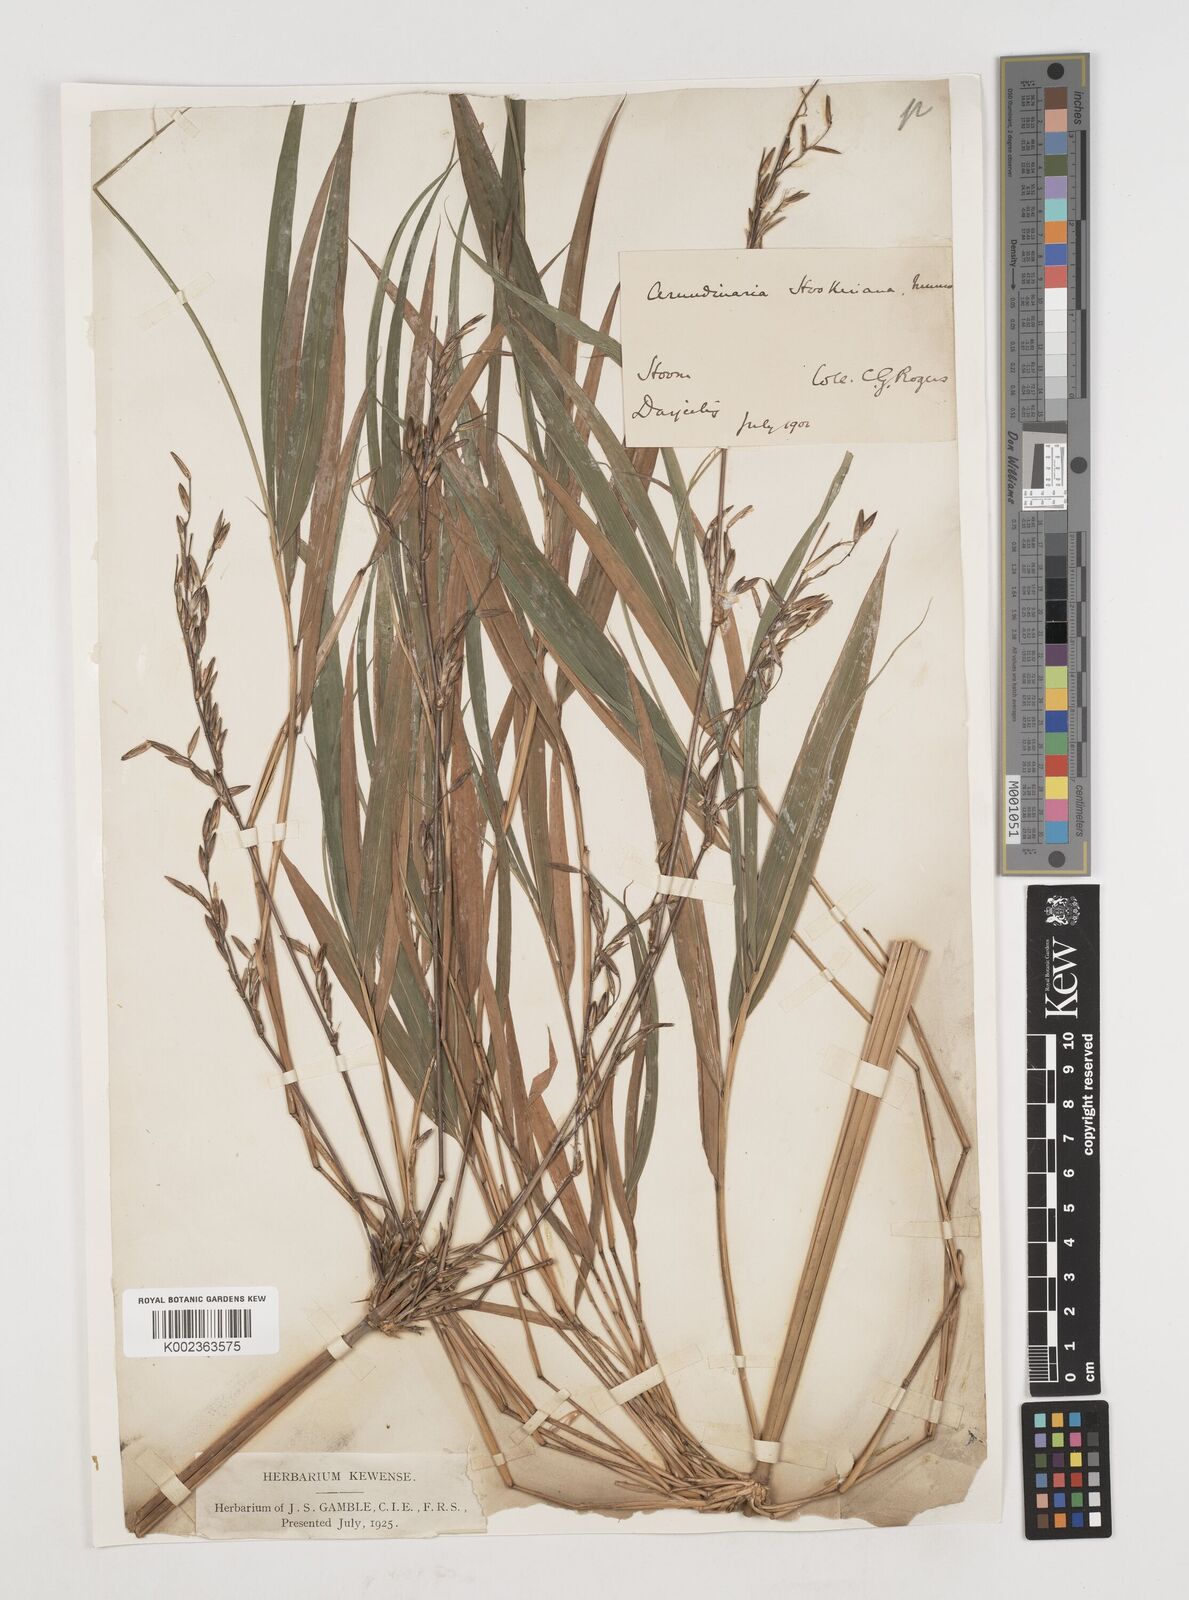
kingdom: Plantae
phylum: Tracheophyta
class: Liliopsida
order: Poales
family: Poaceae
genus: Himalayacalamus
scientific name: Himalayacalamus hookerianus
